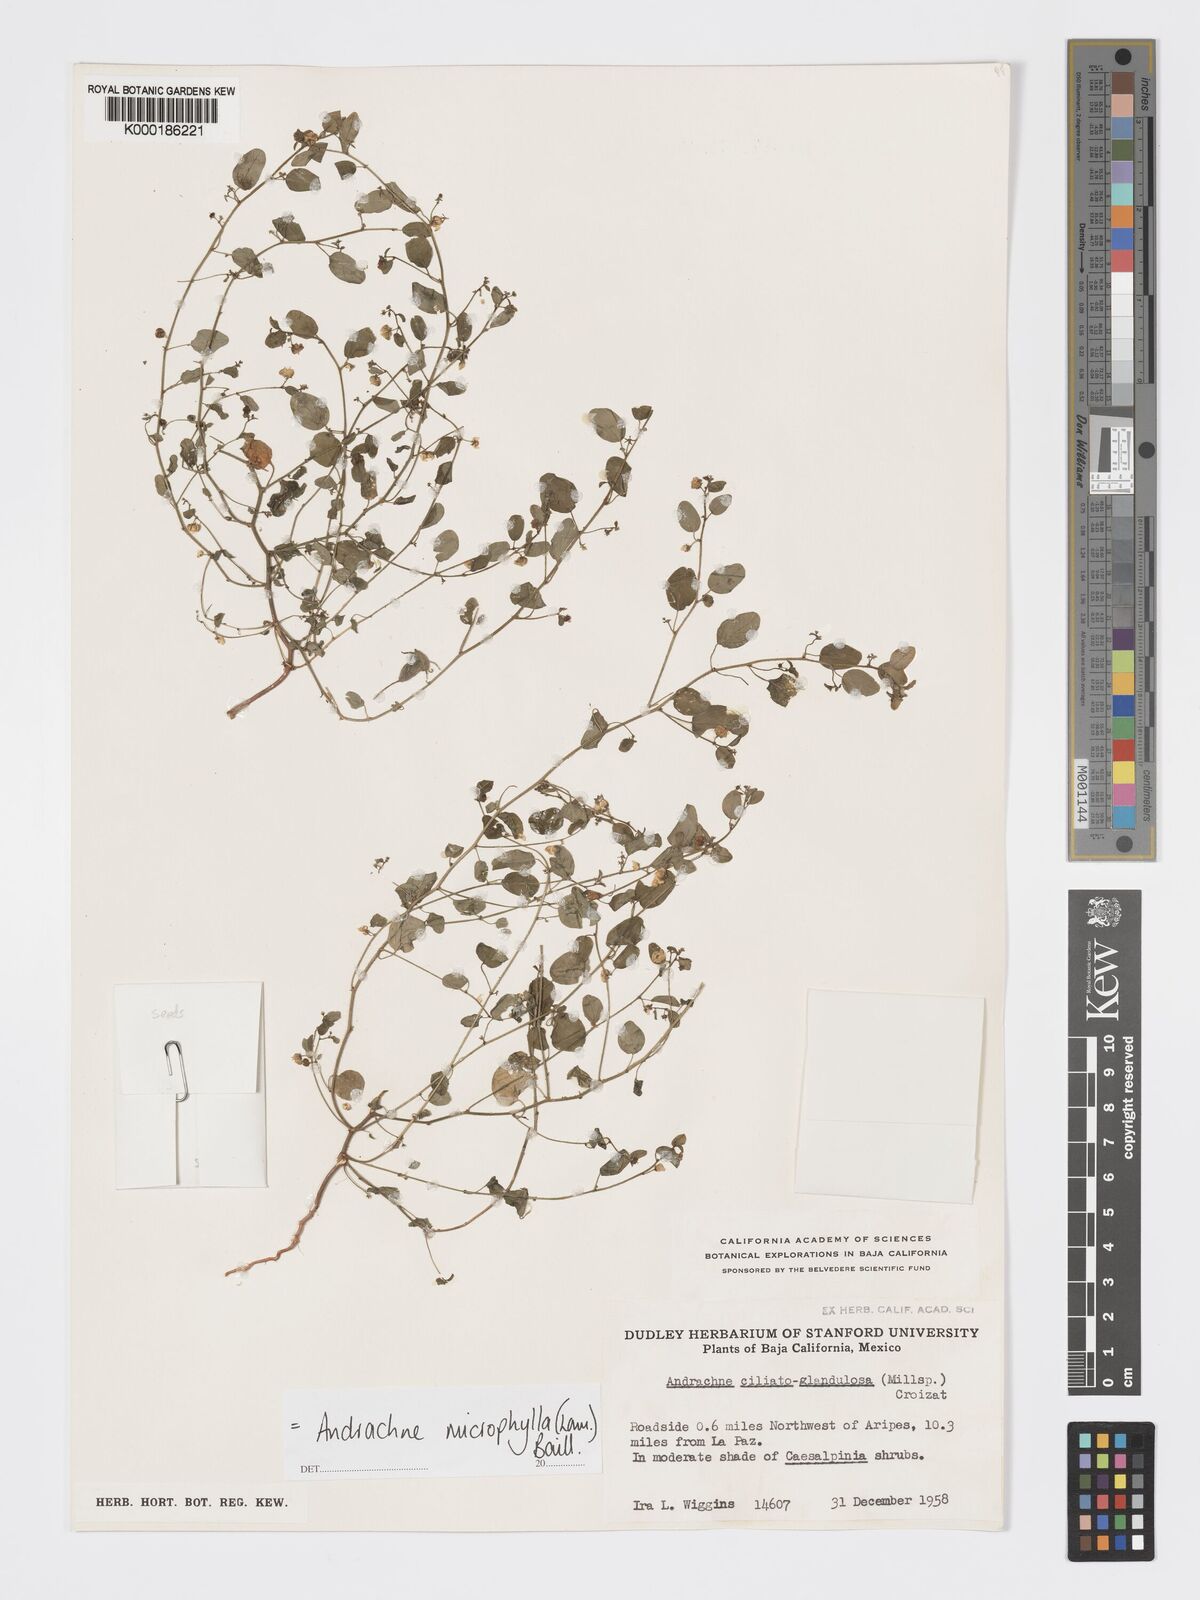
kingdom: Plantae
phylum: Tracheophyta
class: Magnoliopsida
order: Malpighiales
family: Phyllanthaceae
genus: Andrachne
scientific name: Andrachne microphylla
